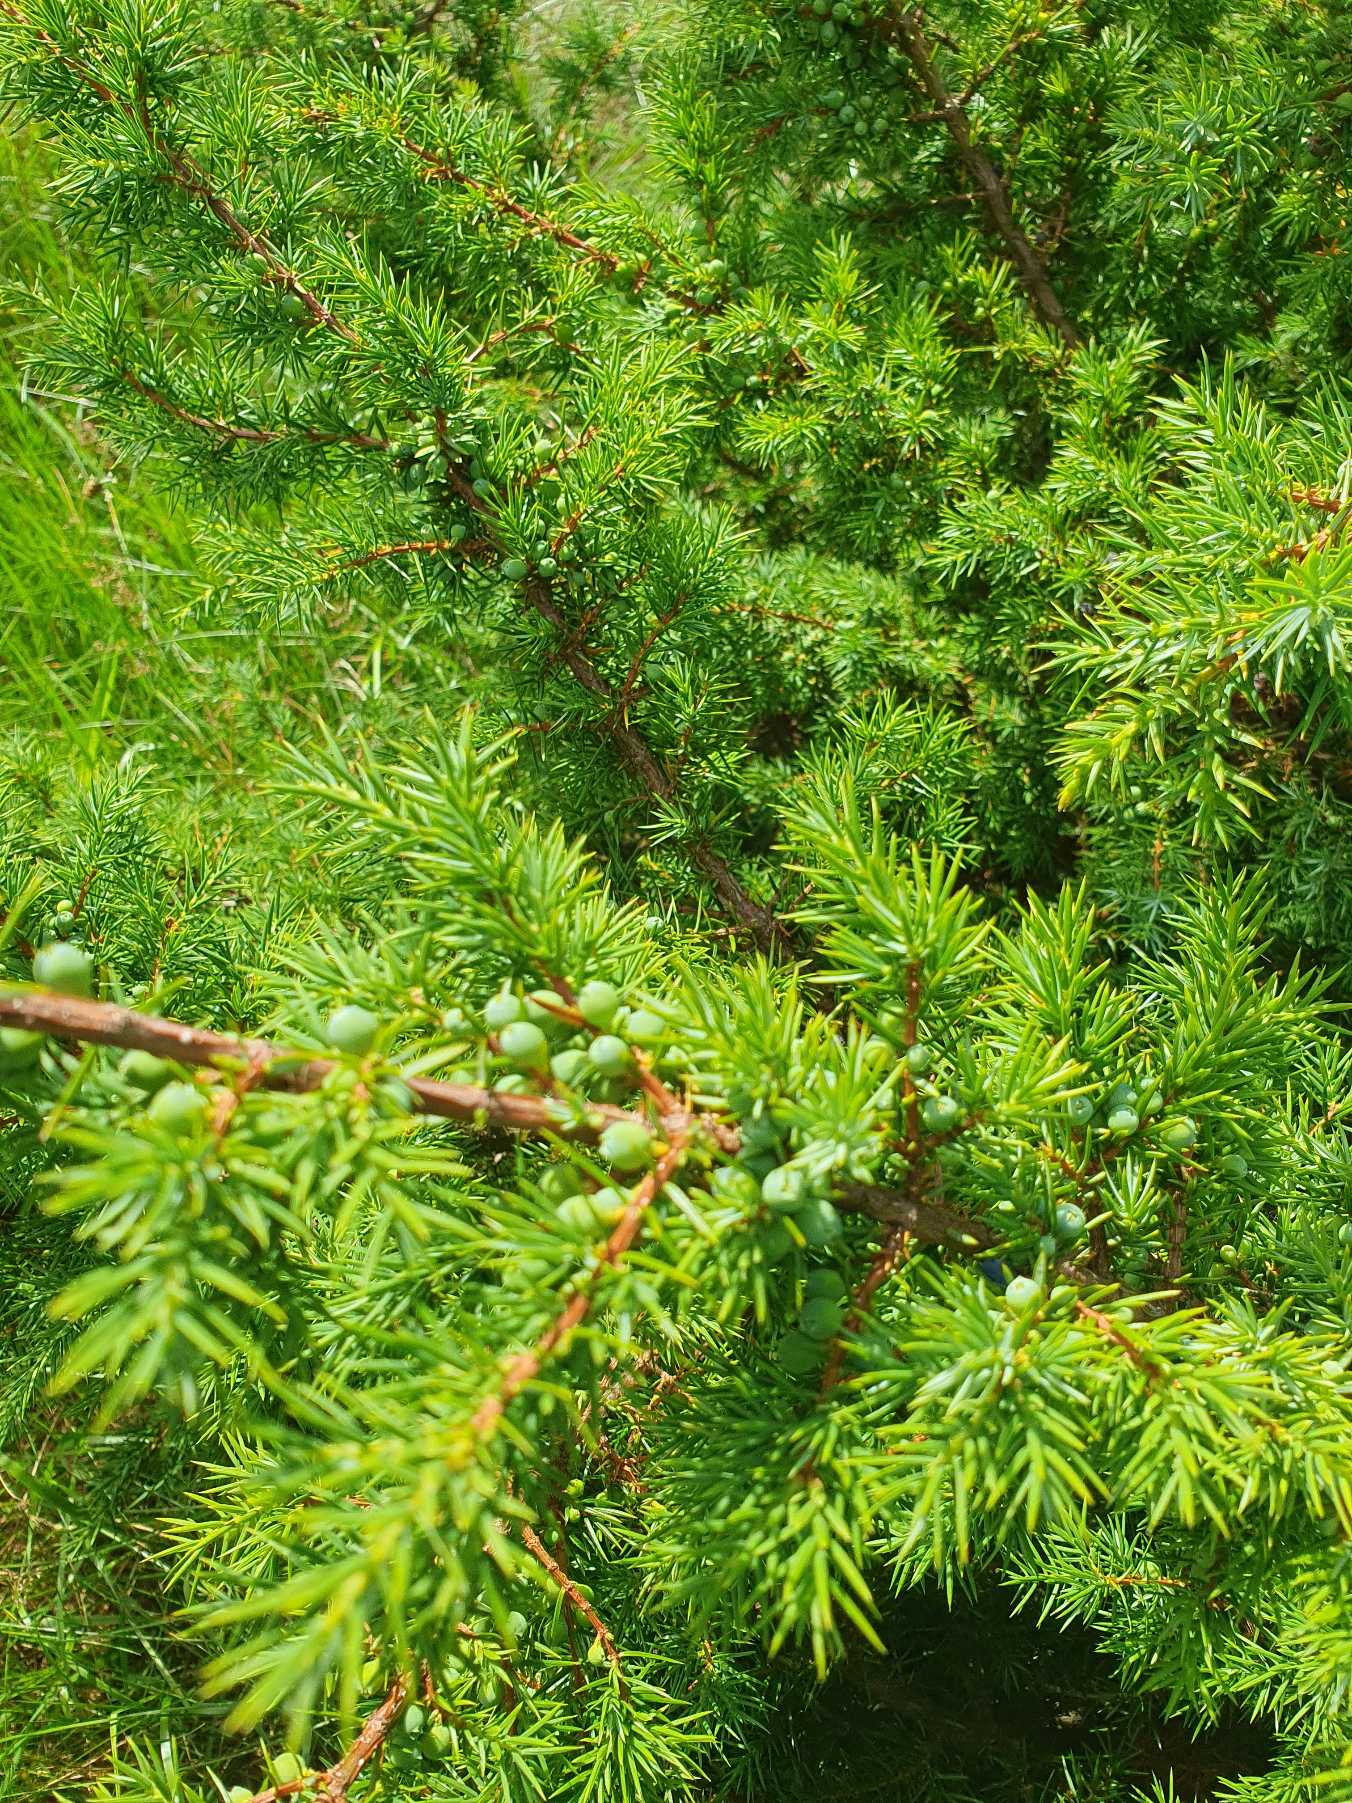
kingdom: Plantae
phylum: Tracheophyta
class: Pinopsida
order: Pinales
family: Cupressaceae
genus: Juniperus
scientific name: Juniperus communis
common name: Almindelig ene
